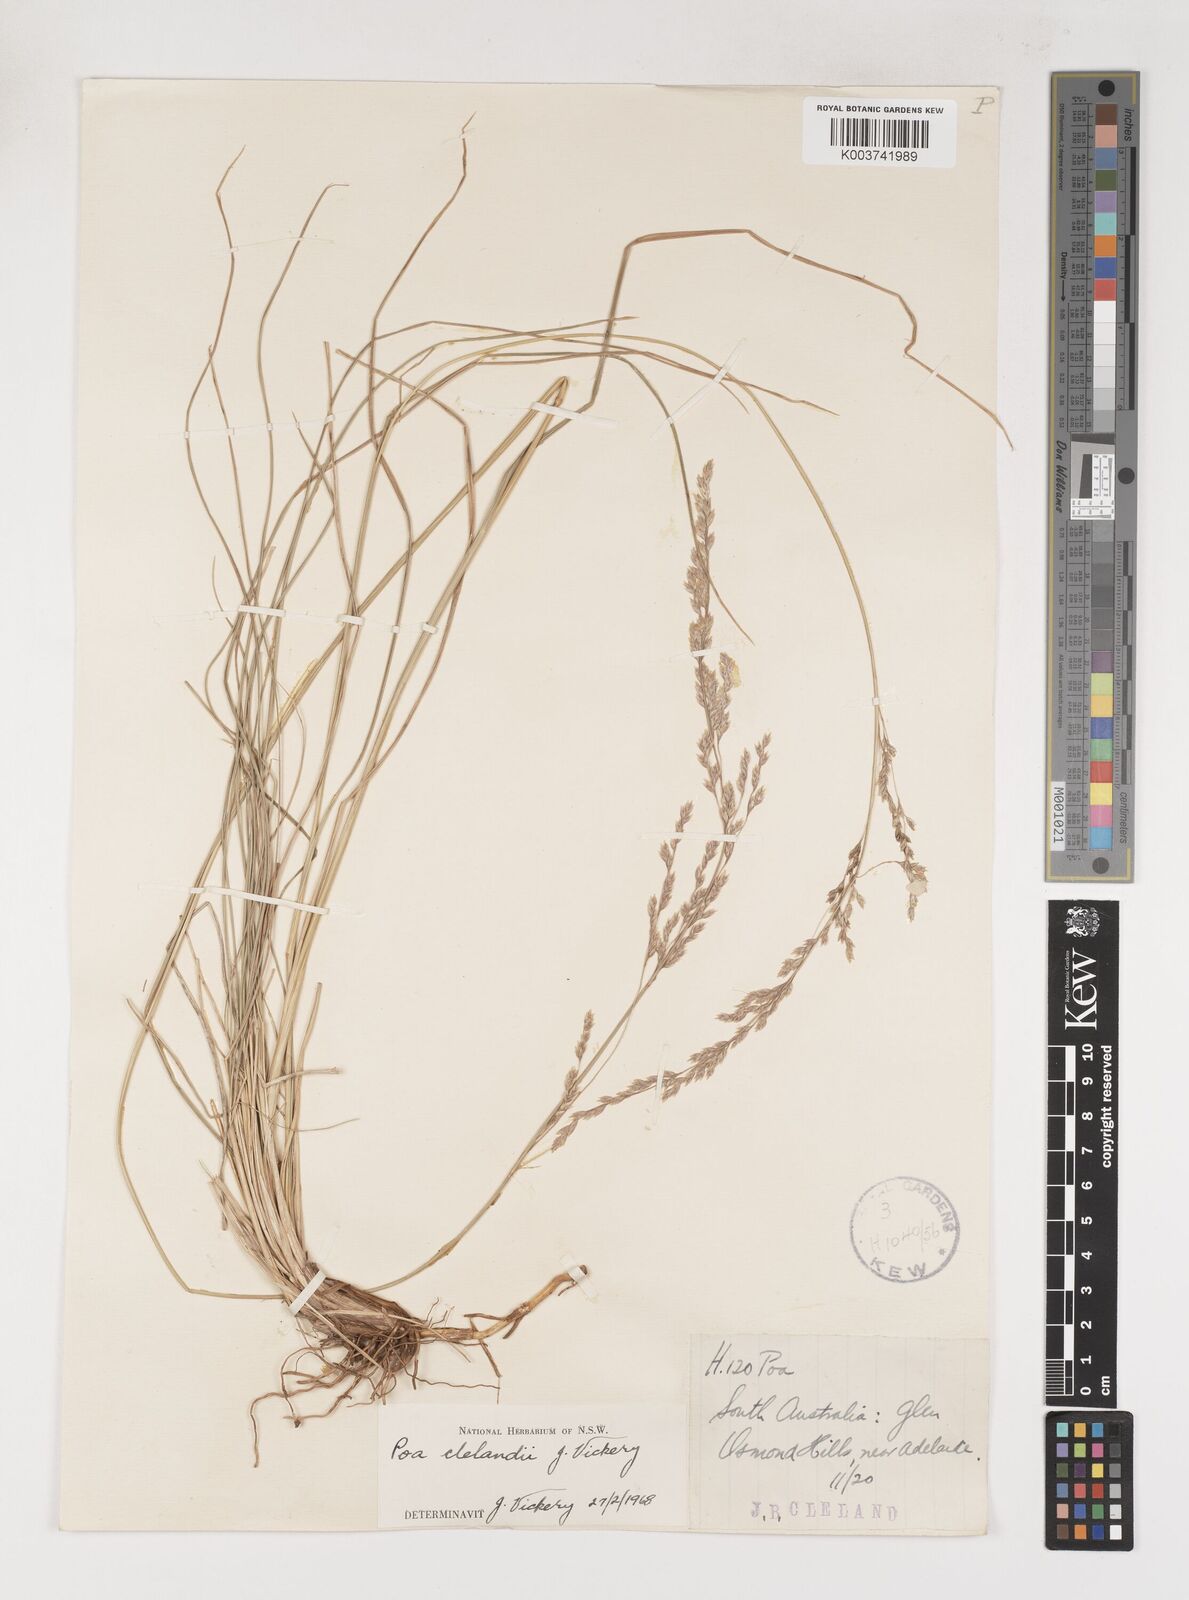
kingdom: Plantae
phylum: Tracheophyta
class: Liliopsida
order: Poales
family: Poaceae
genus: Poa
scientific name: Poa clelandii
